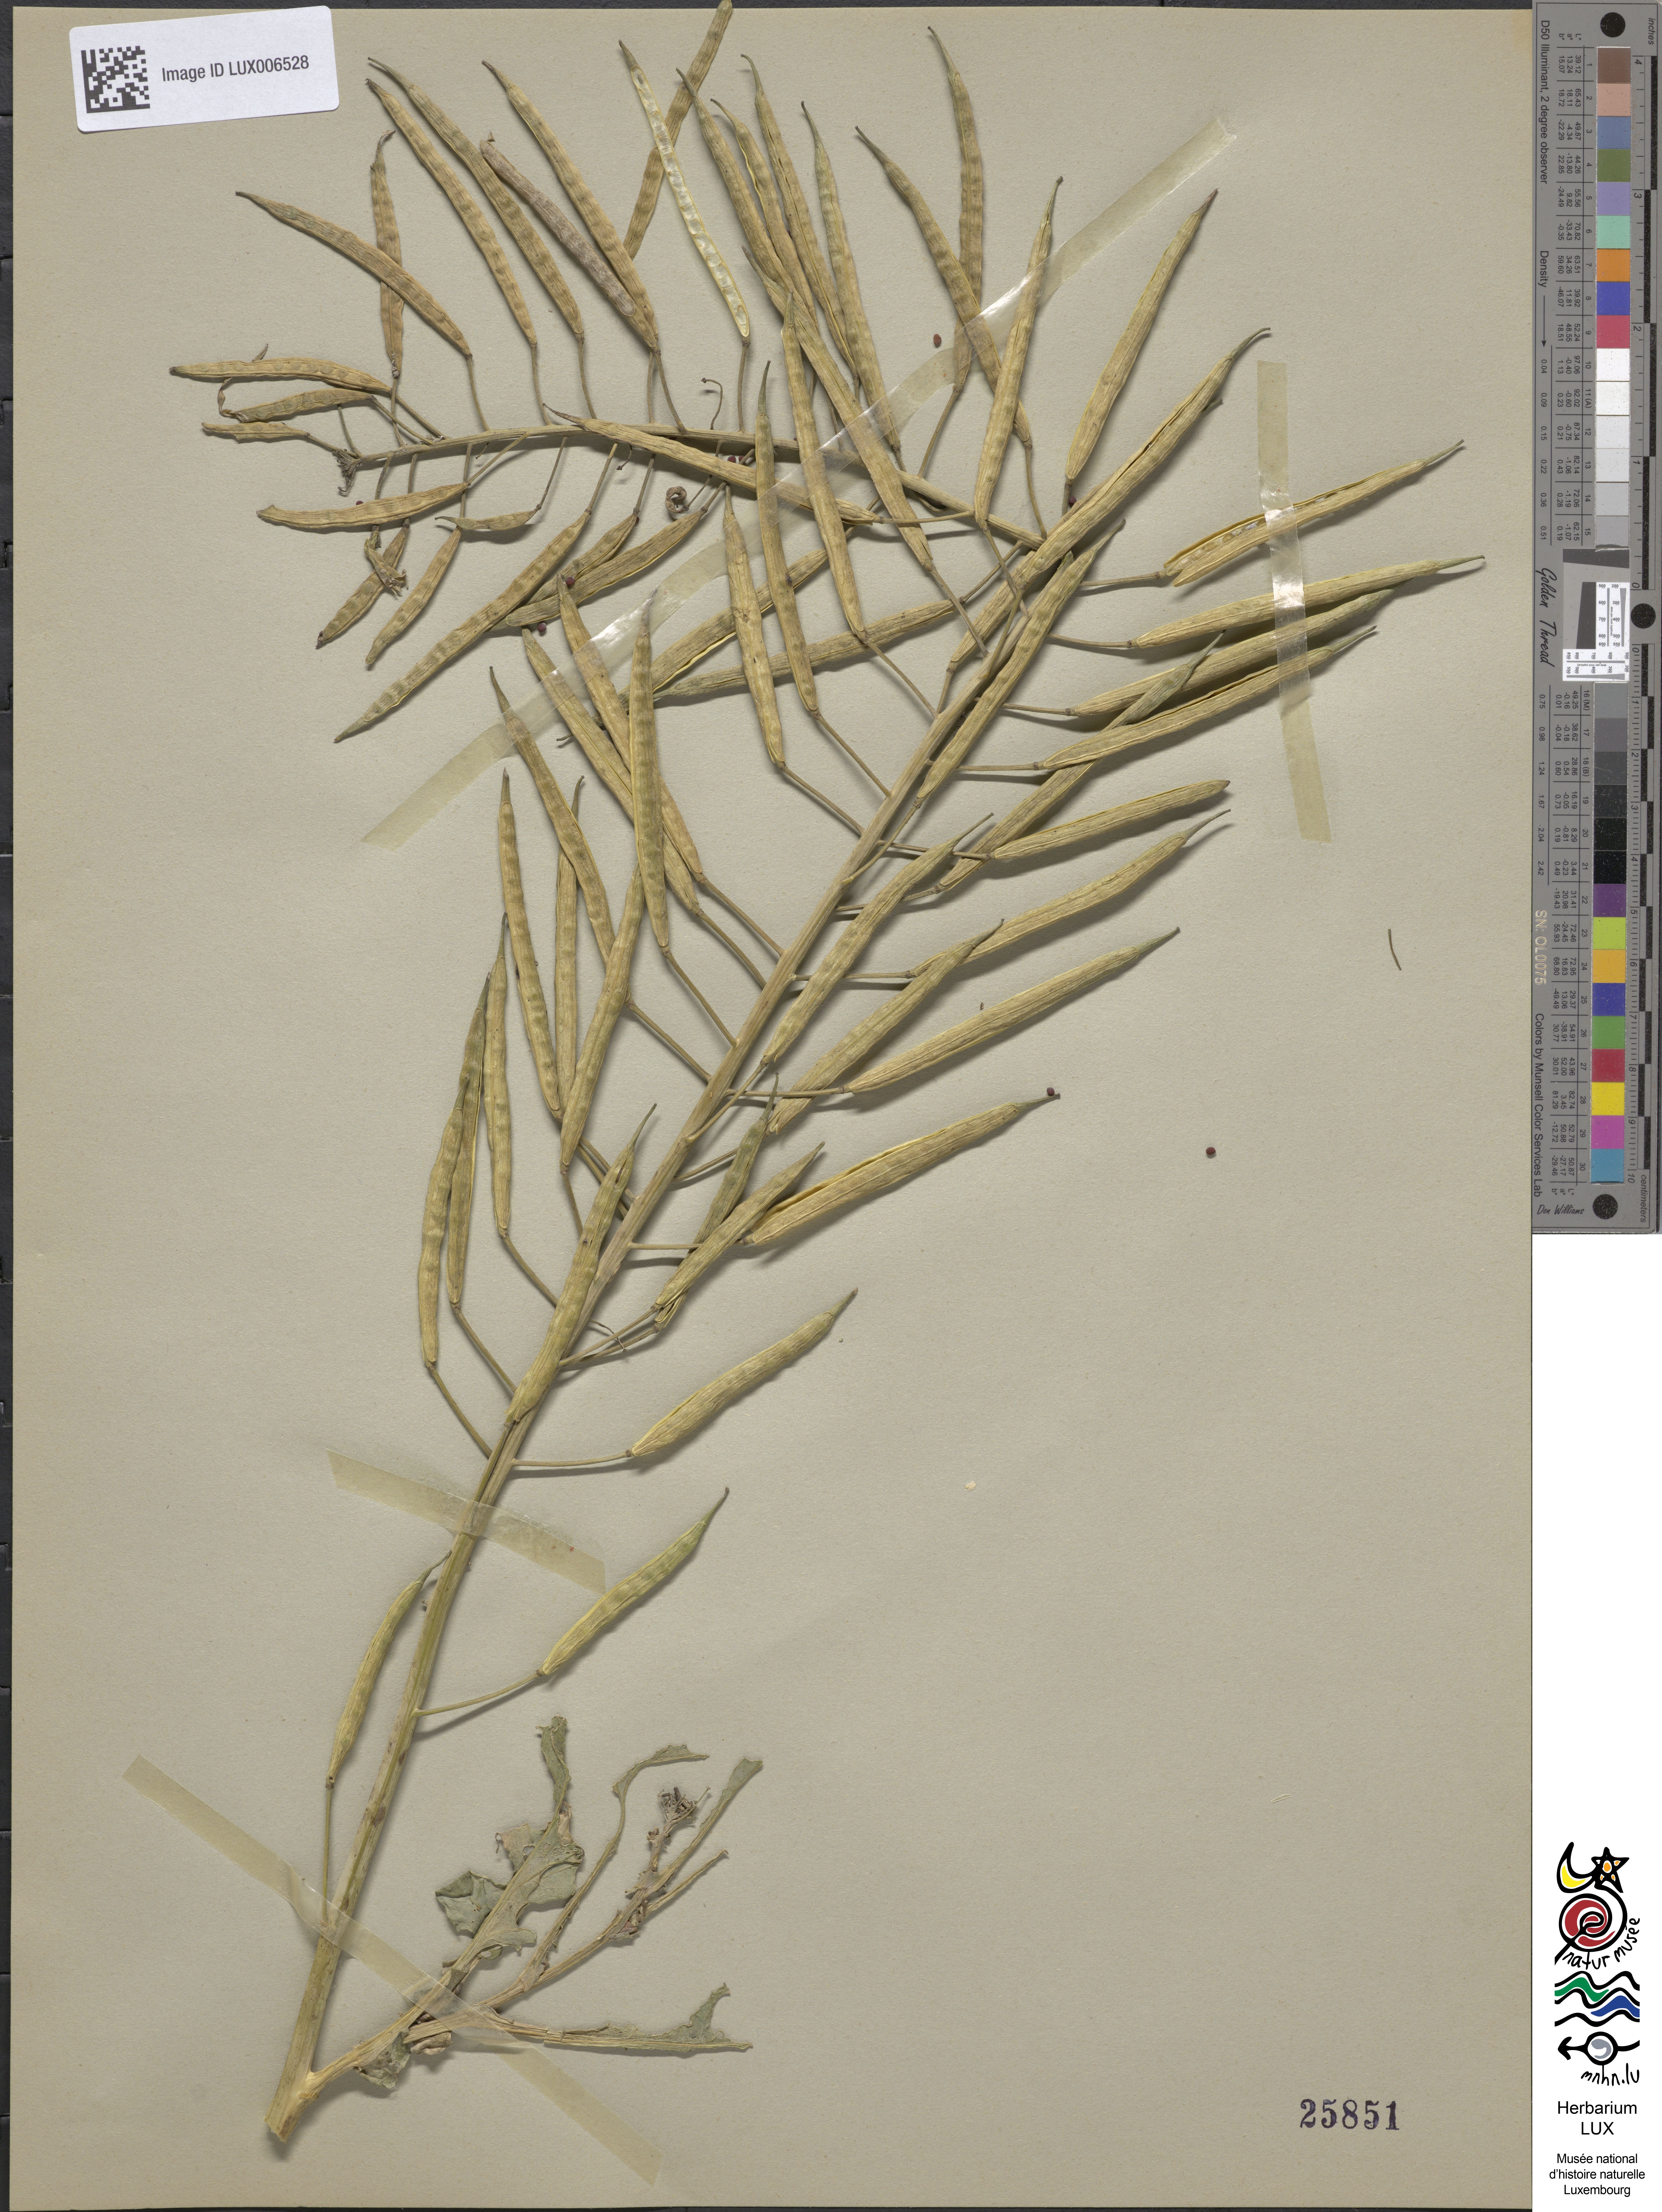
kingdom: Plantae
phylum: Tracheophyta
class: Magnoliopsida
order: Brassicales
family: Brassicaceae
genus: Brassica
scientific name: Brassica
